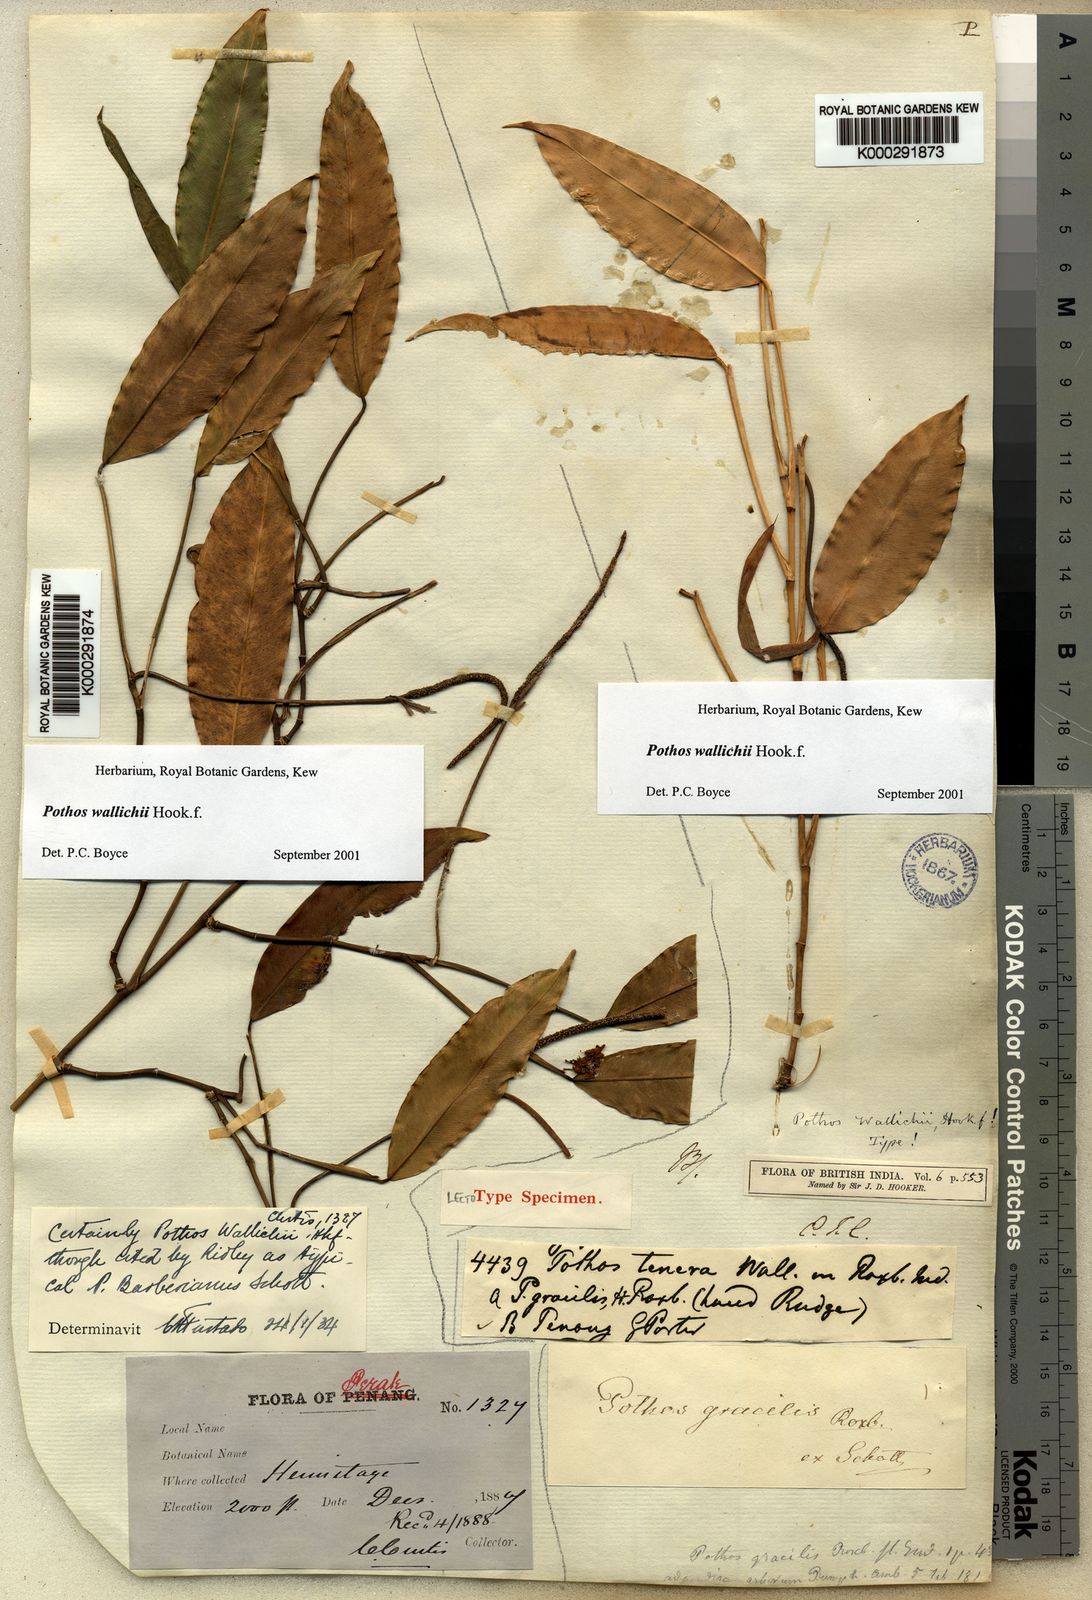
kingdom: Plantae
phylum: Tracheophyta
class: Liliopsida
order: Alismatales
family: Araceae
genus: Pothos
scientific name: Pothos wallichii
